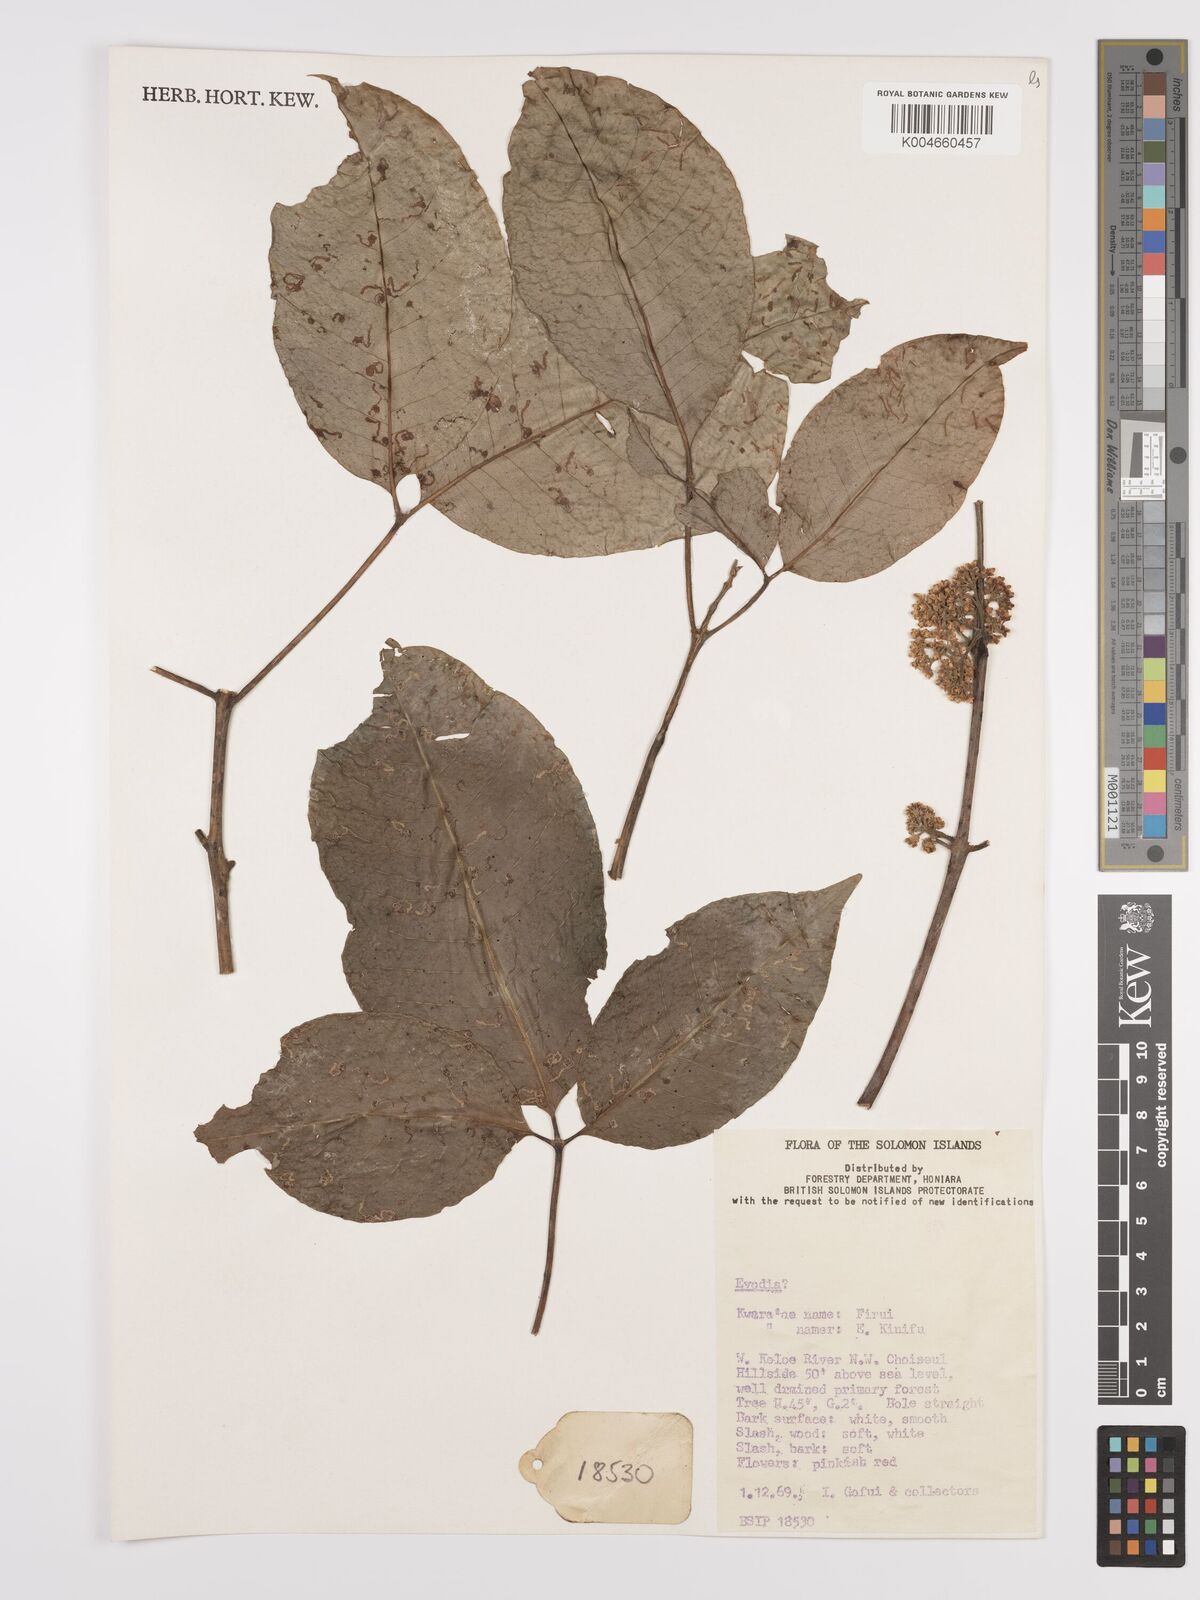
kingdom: Plantae
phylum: Tracheophyta
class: Magnoliopsida
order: Sapindales
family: Rutaceae
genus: Euodia
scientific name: Euodia
